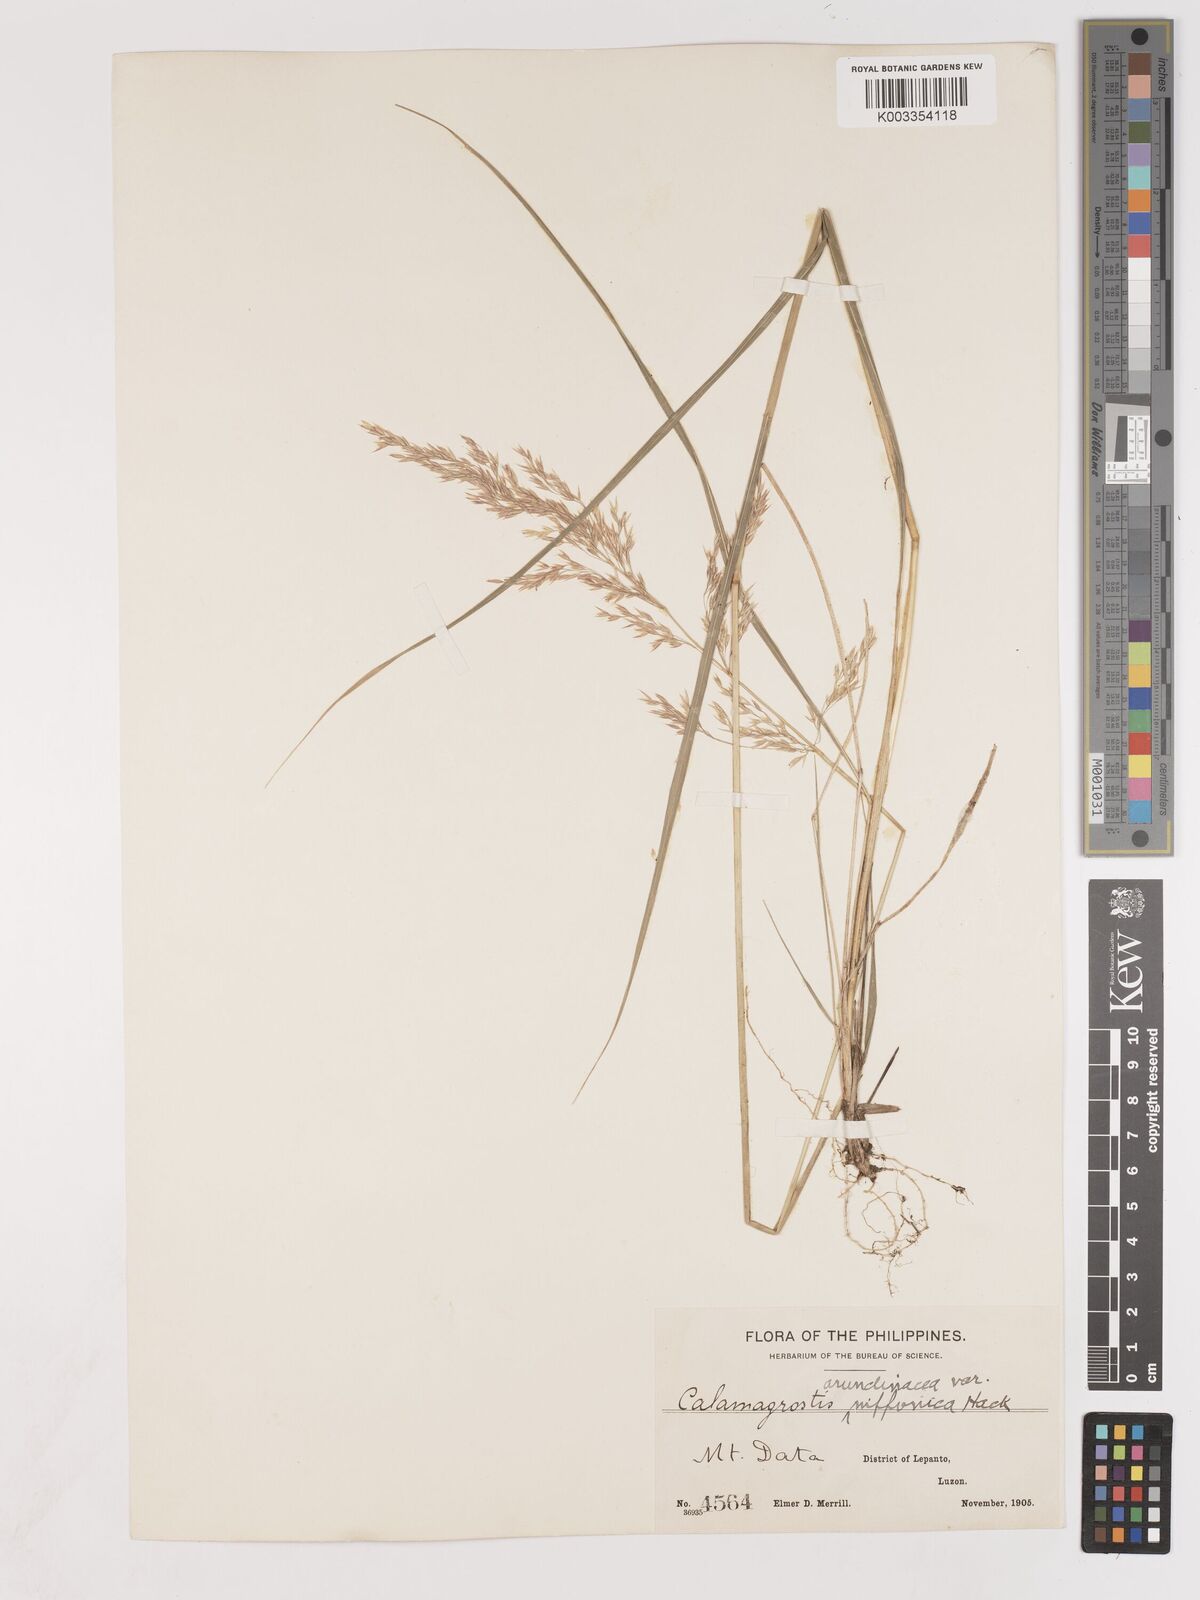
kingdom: Plantae
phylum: Tracheophyta
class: Liliopsida
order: Poales
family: Poaceae
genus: Calamagrostis
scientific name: Calamagrostis
